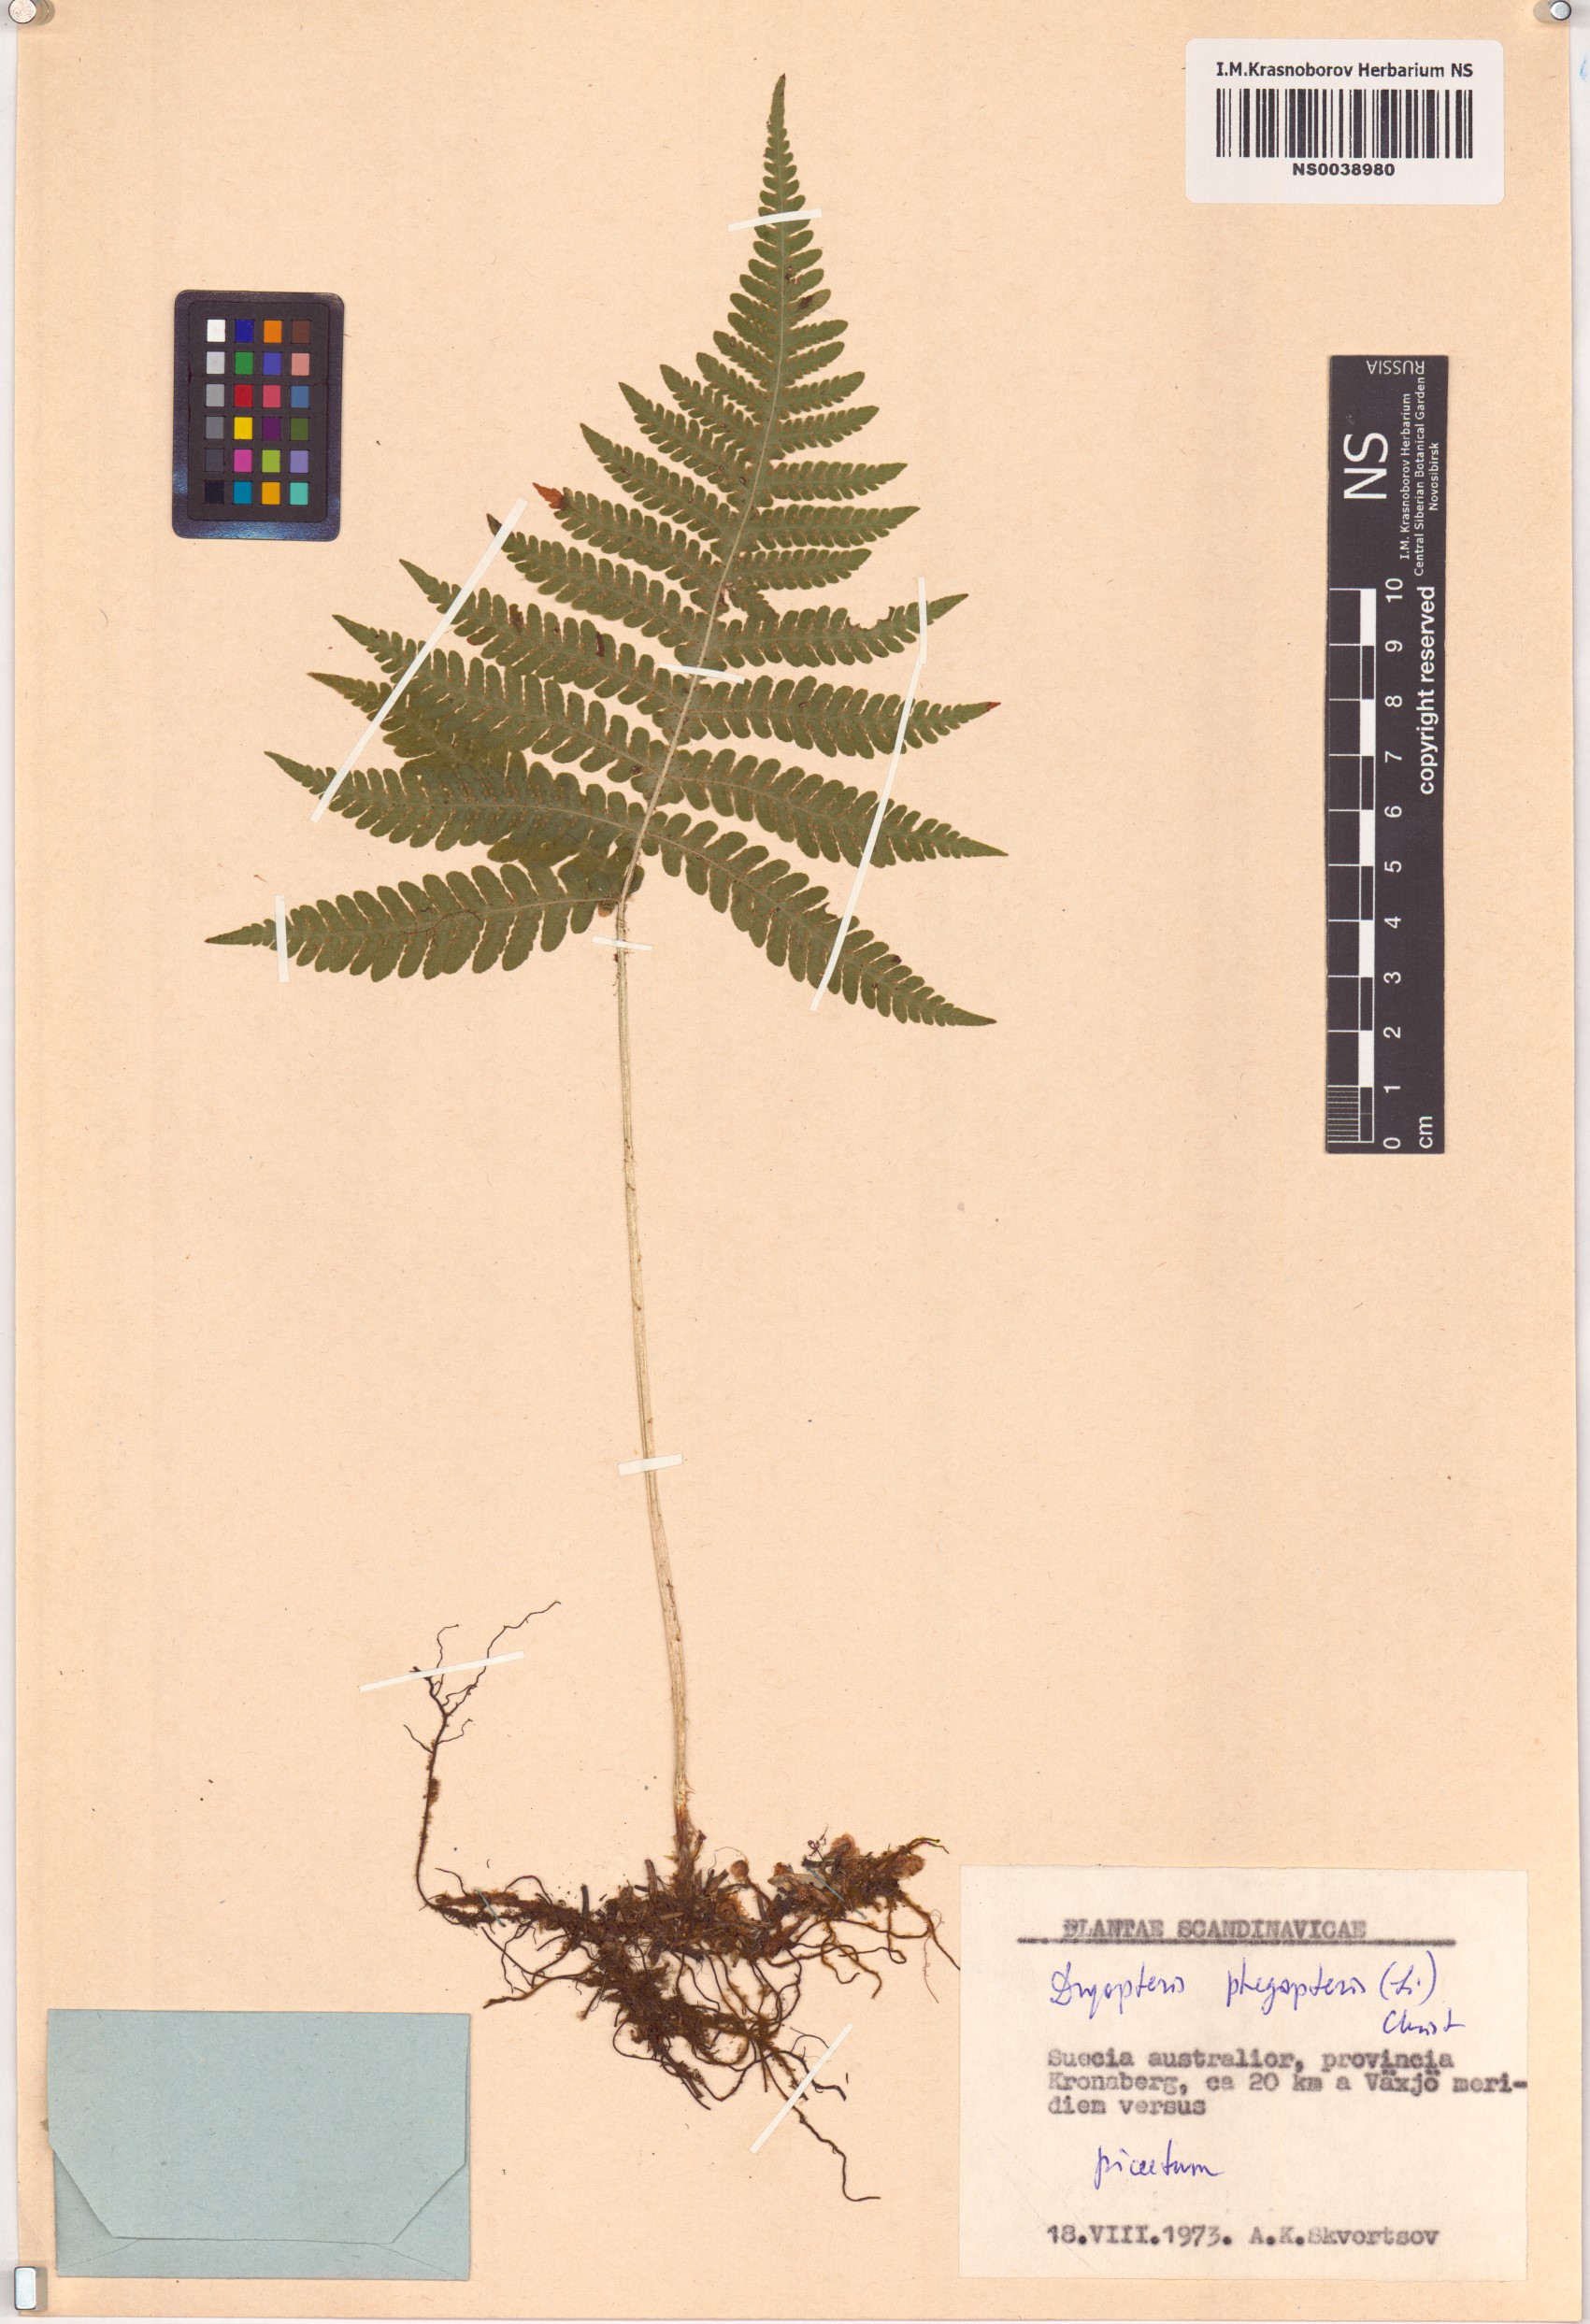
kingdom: Plantae
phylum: Tracheophyta
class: Polypodiopsida
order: Polypodiales
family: Thelypteridaceae
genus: Phegopteris
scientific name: Phegopteris connectilis
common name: Beech fern
